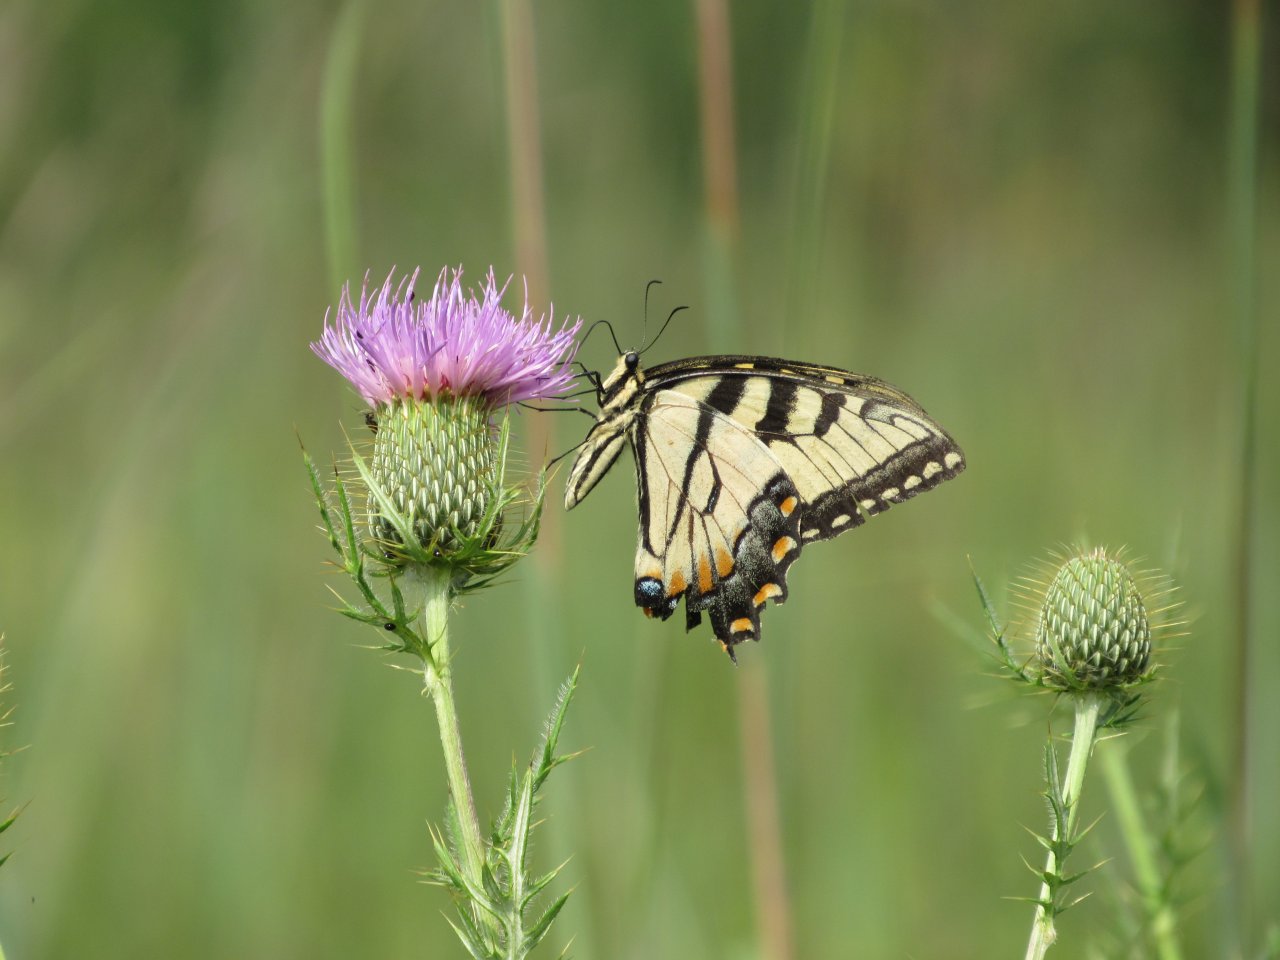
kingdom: Animalia
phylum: Arthropoda
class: Insecta
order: Lepidoptera
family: Papilionidae
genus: Pterourus
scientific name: Pterourus glaucus
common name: Eastern Tiger Swallowtail
